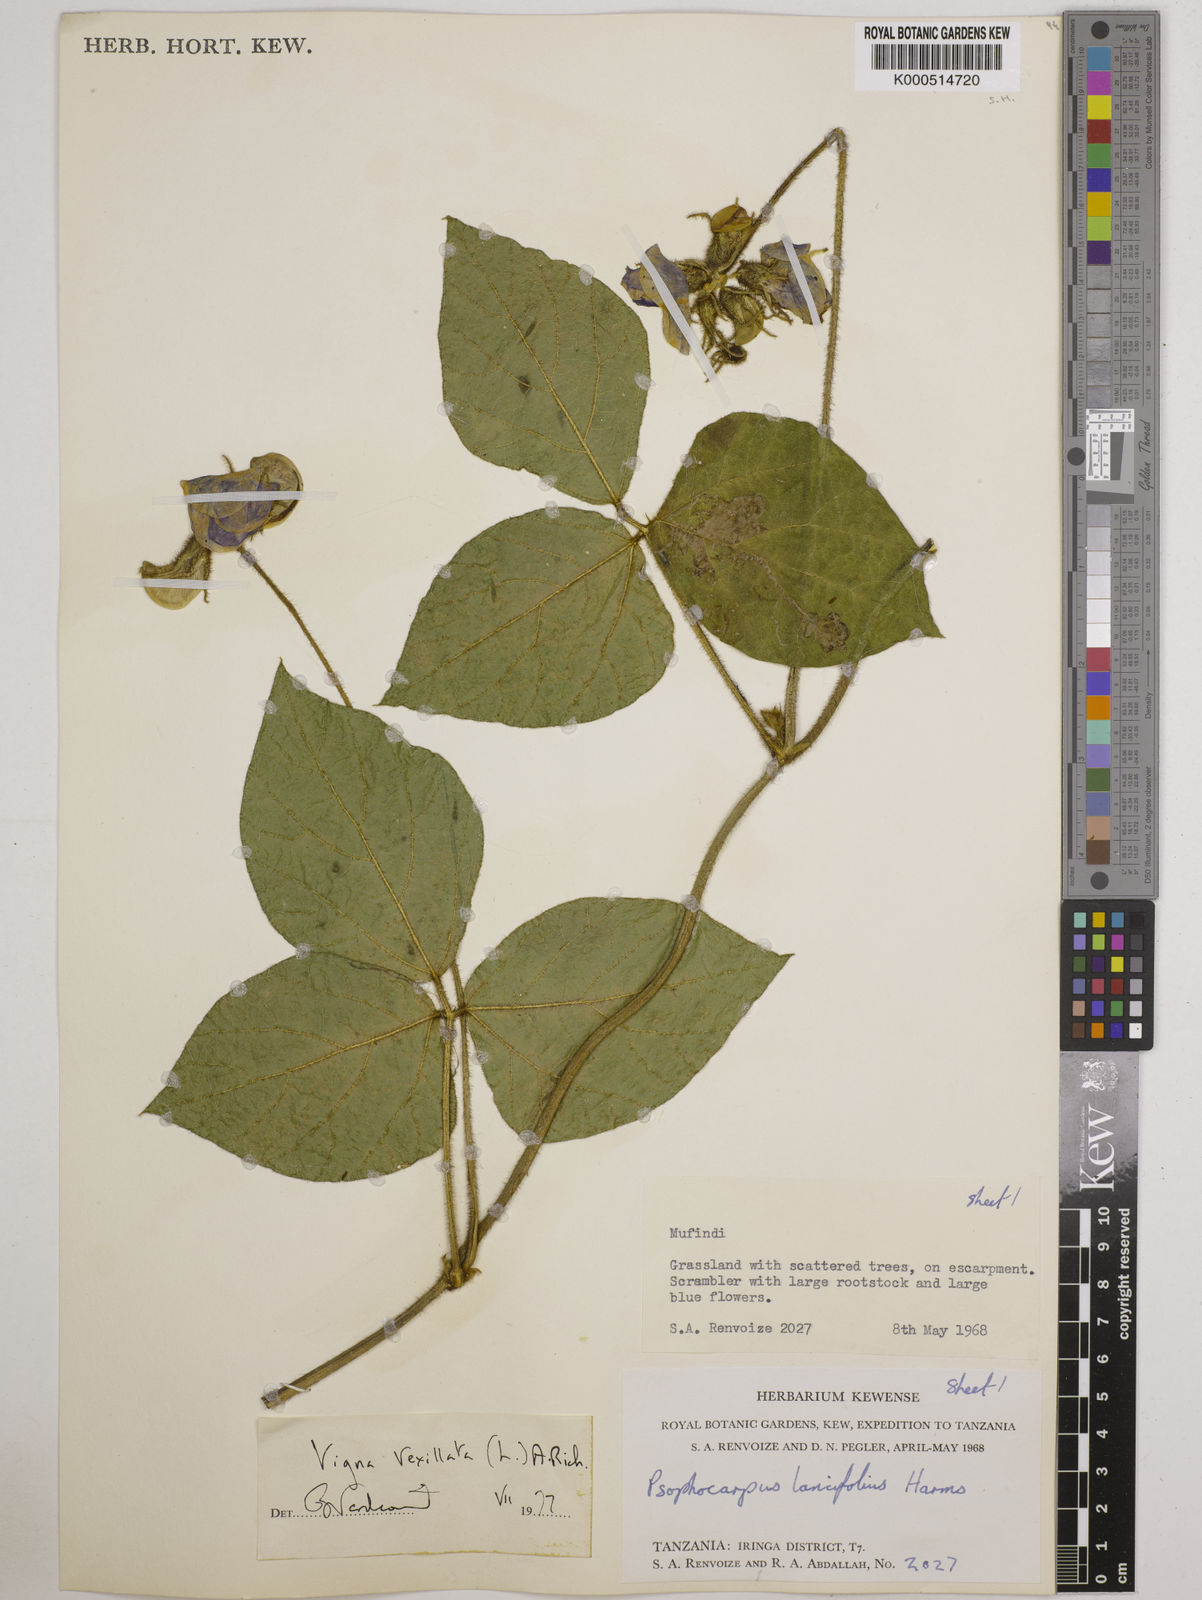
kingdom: Plantae
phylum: Tracheophyta
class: Magnoliopsida
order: Fabales
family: Fabaceae
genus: Vigna
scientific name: Vigna vexillata
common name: Zombi pea
